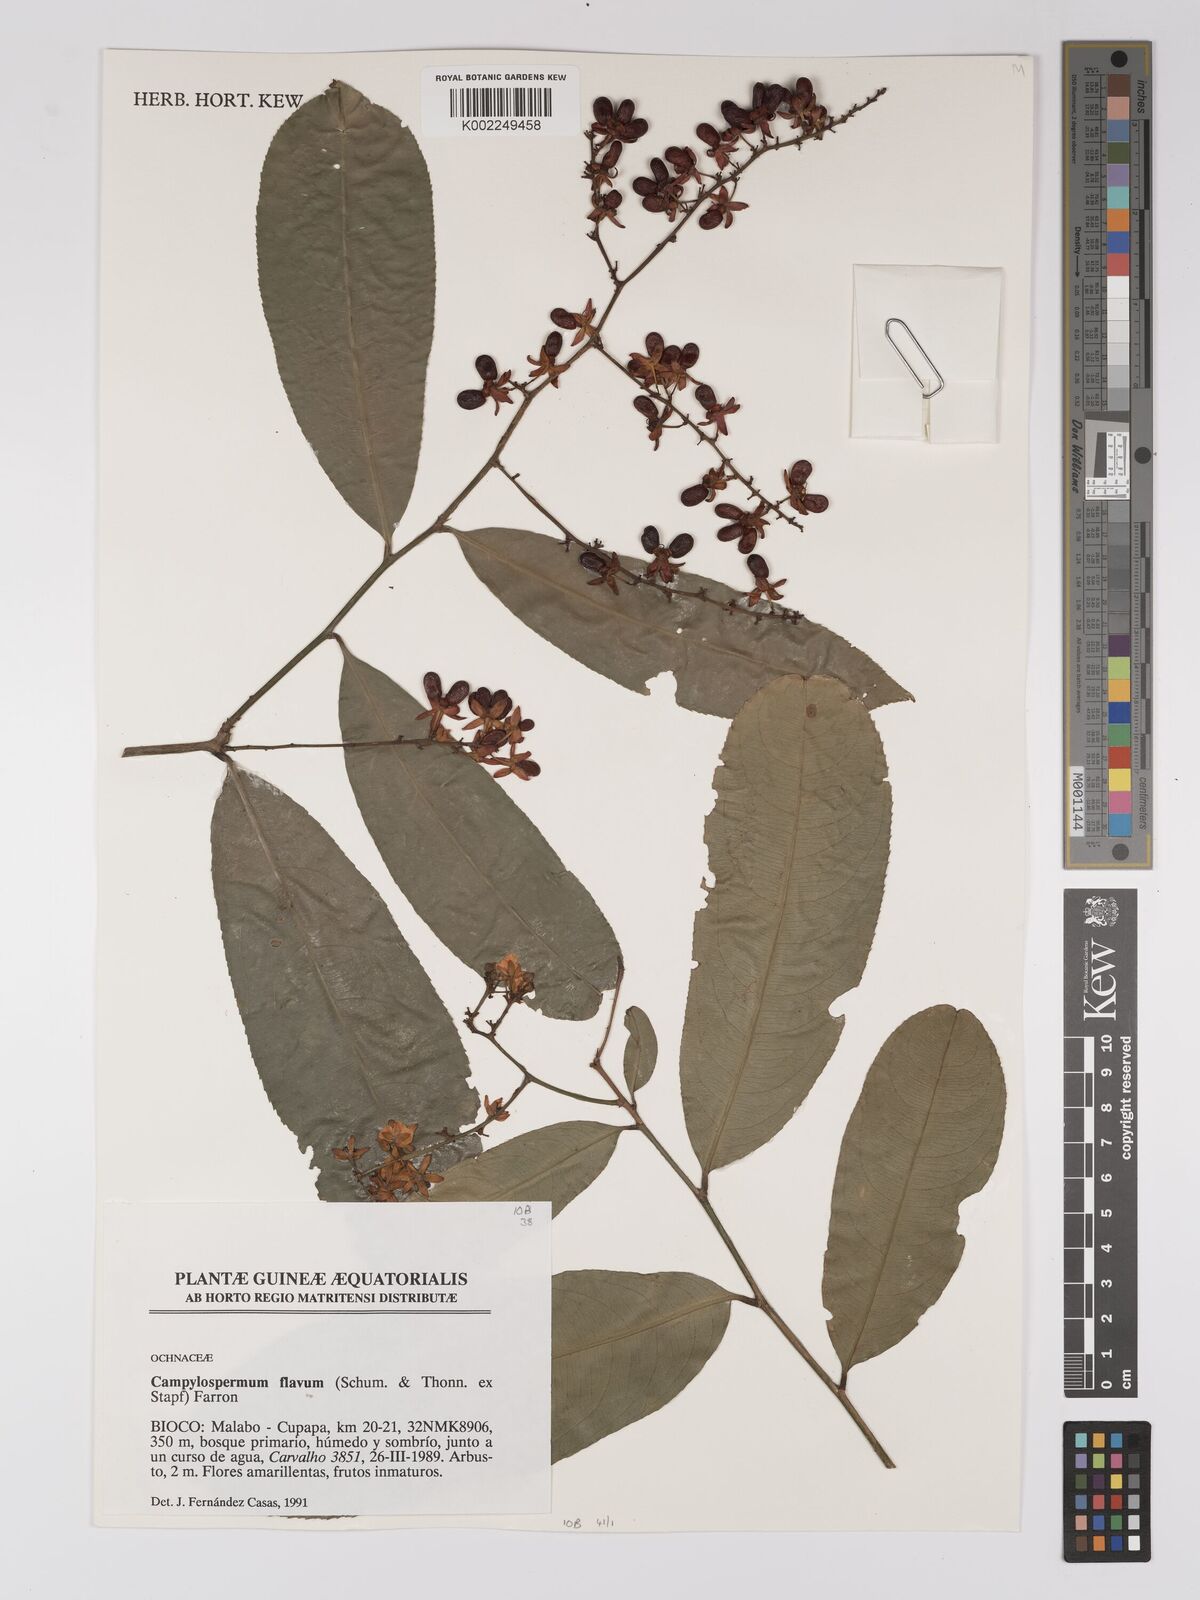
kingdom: Plantae
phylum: Tracheophyta
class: Magnoliopsida
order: Malpighiales
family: Ochnaceae
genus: Campylospermum
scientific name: Campylospermum flavum
